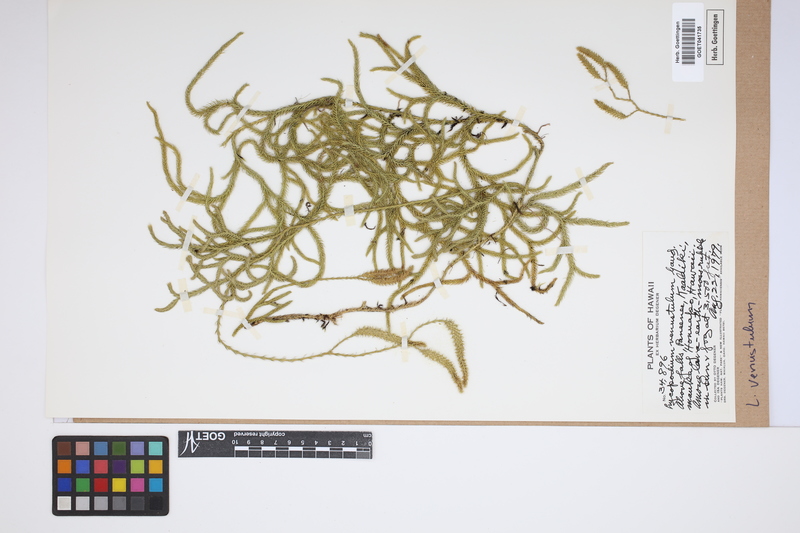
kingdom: Plantae
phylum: Tracheophyta
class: Lycopodiopsida
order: Lycopodiales
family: Lycopodiaceae
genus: Lycopodium
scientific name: Lycopodium venustulum
